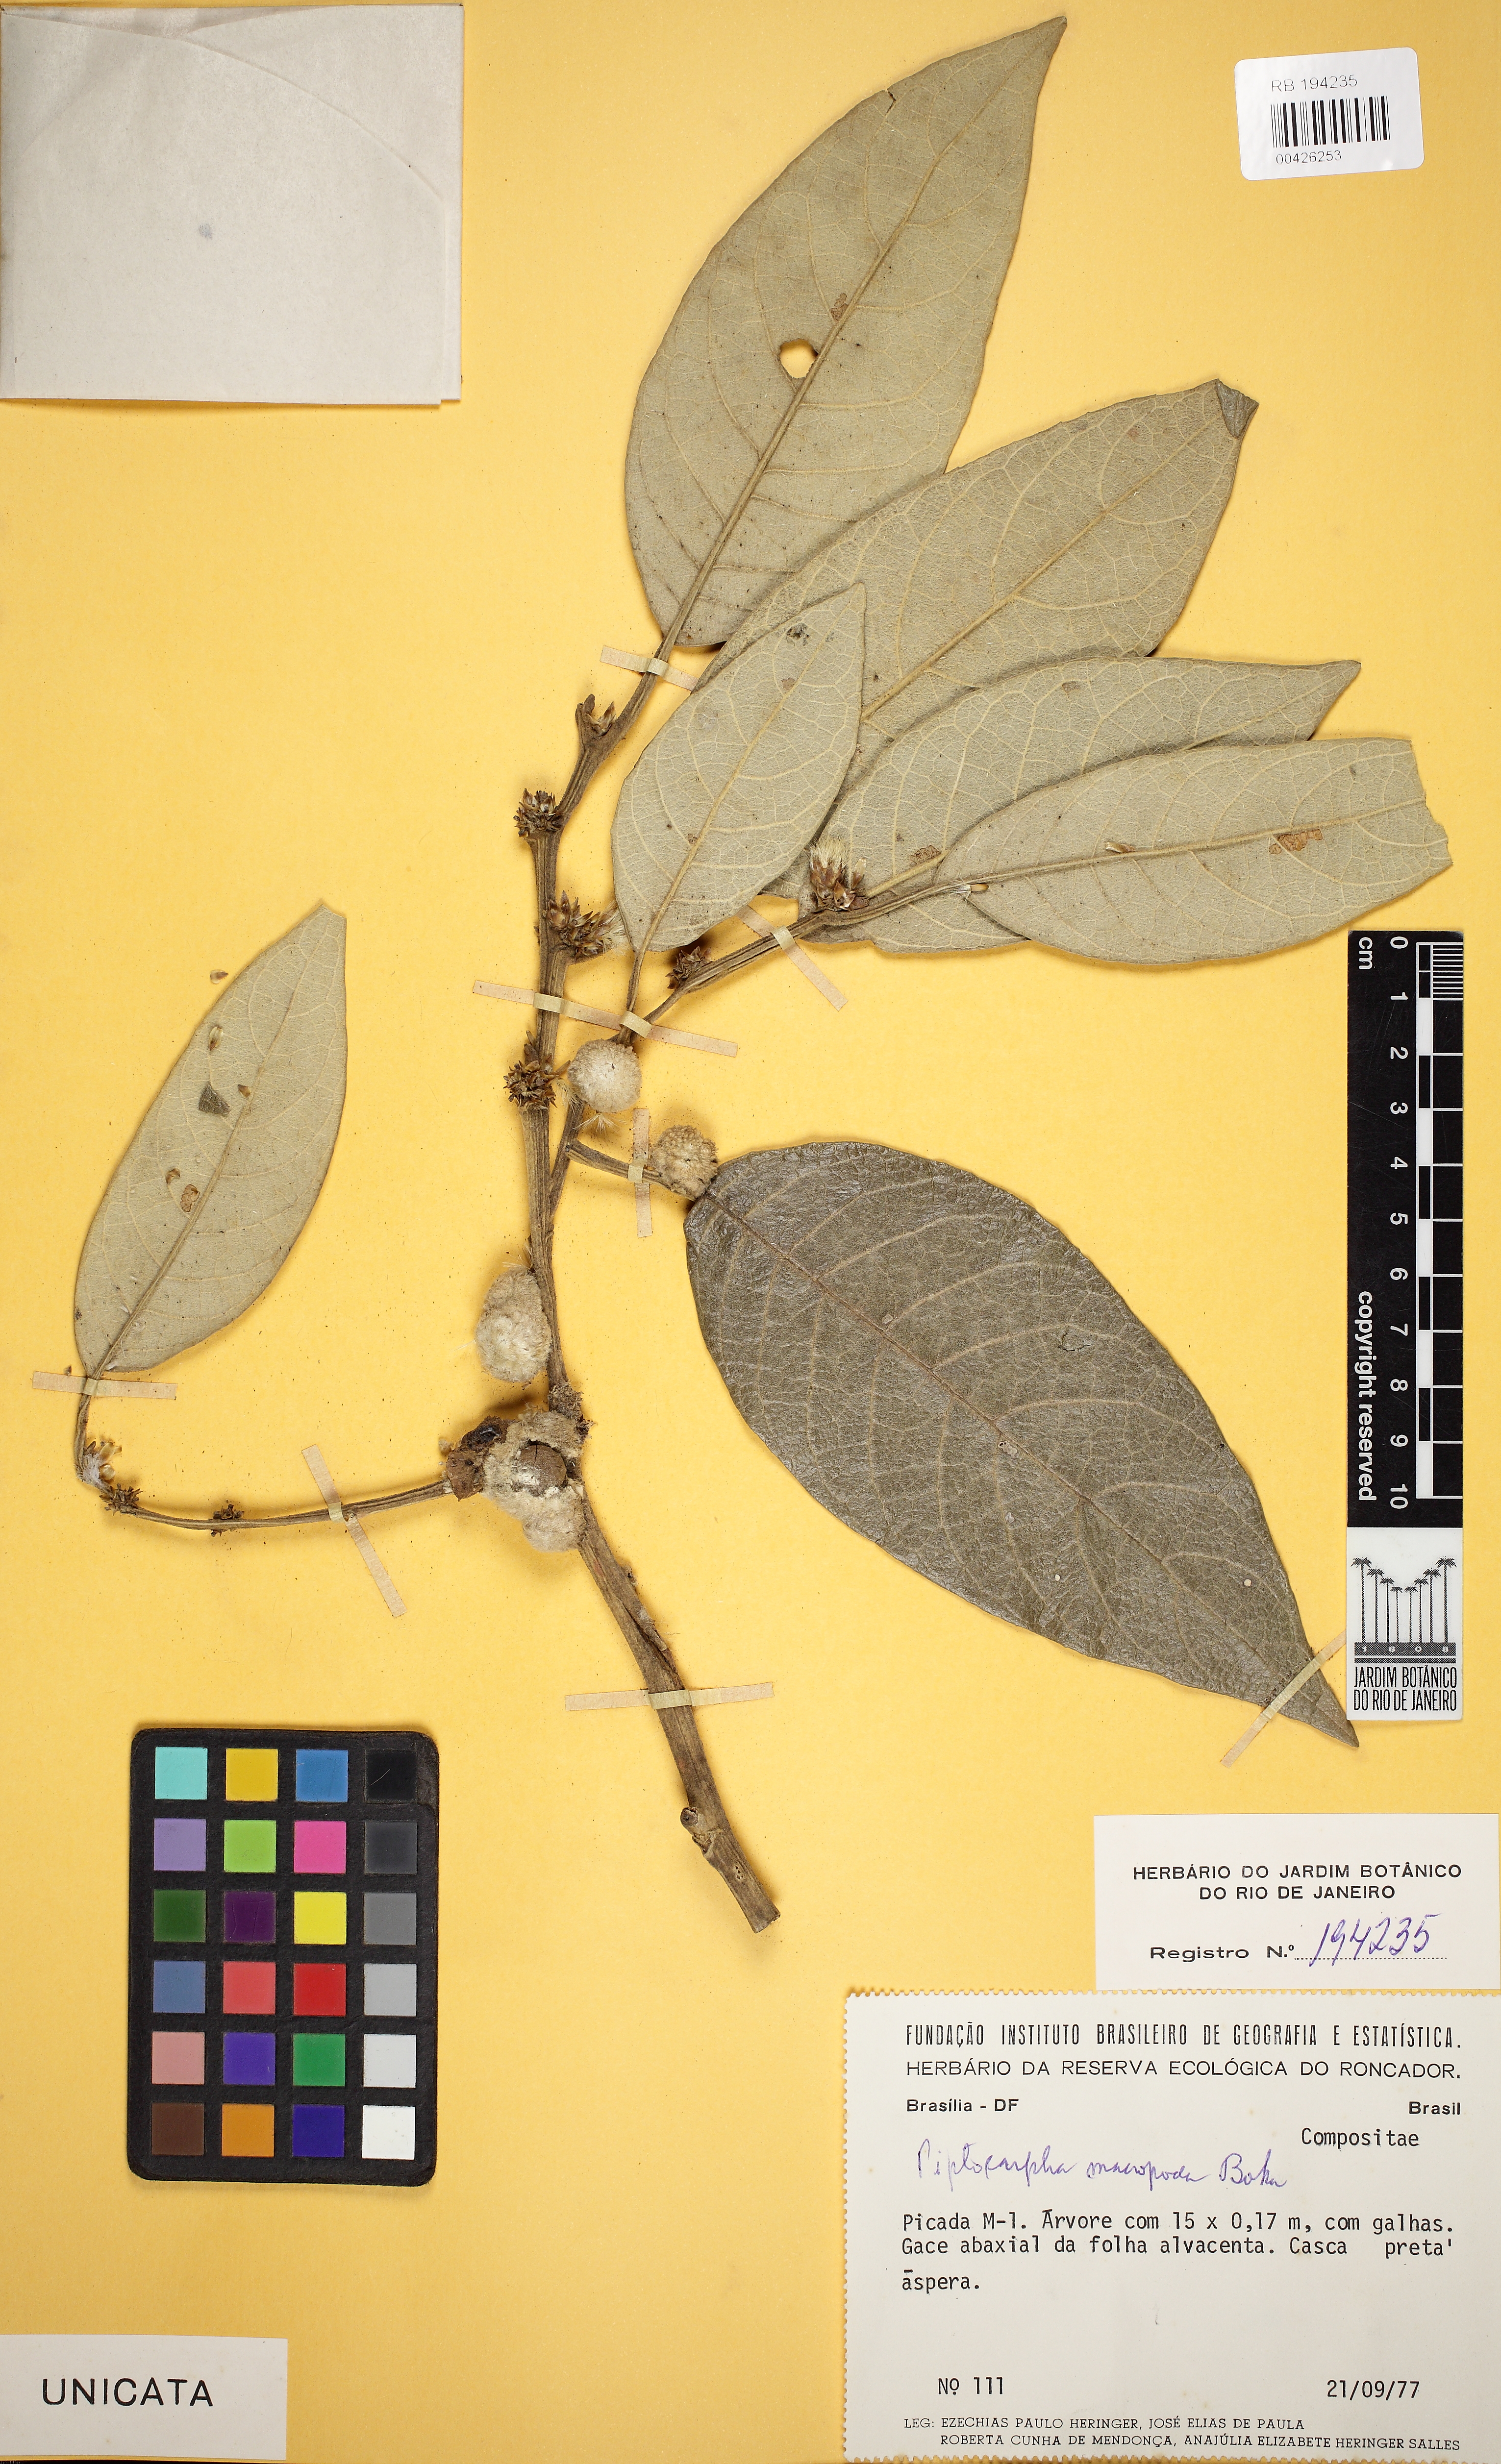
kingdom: Plantae
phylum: Tracheophyta
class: Magnoliopsida
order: Asterales
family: Asteraceae
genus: Piptocarpha
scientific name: Piptocarpha macropoda
